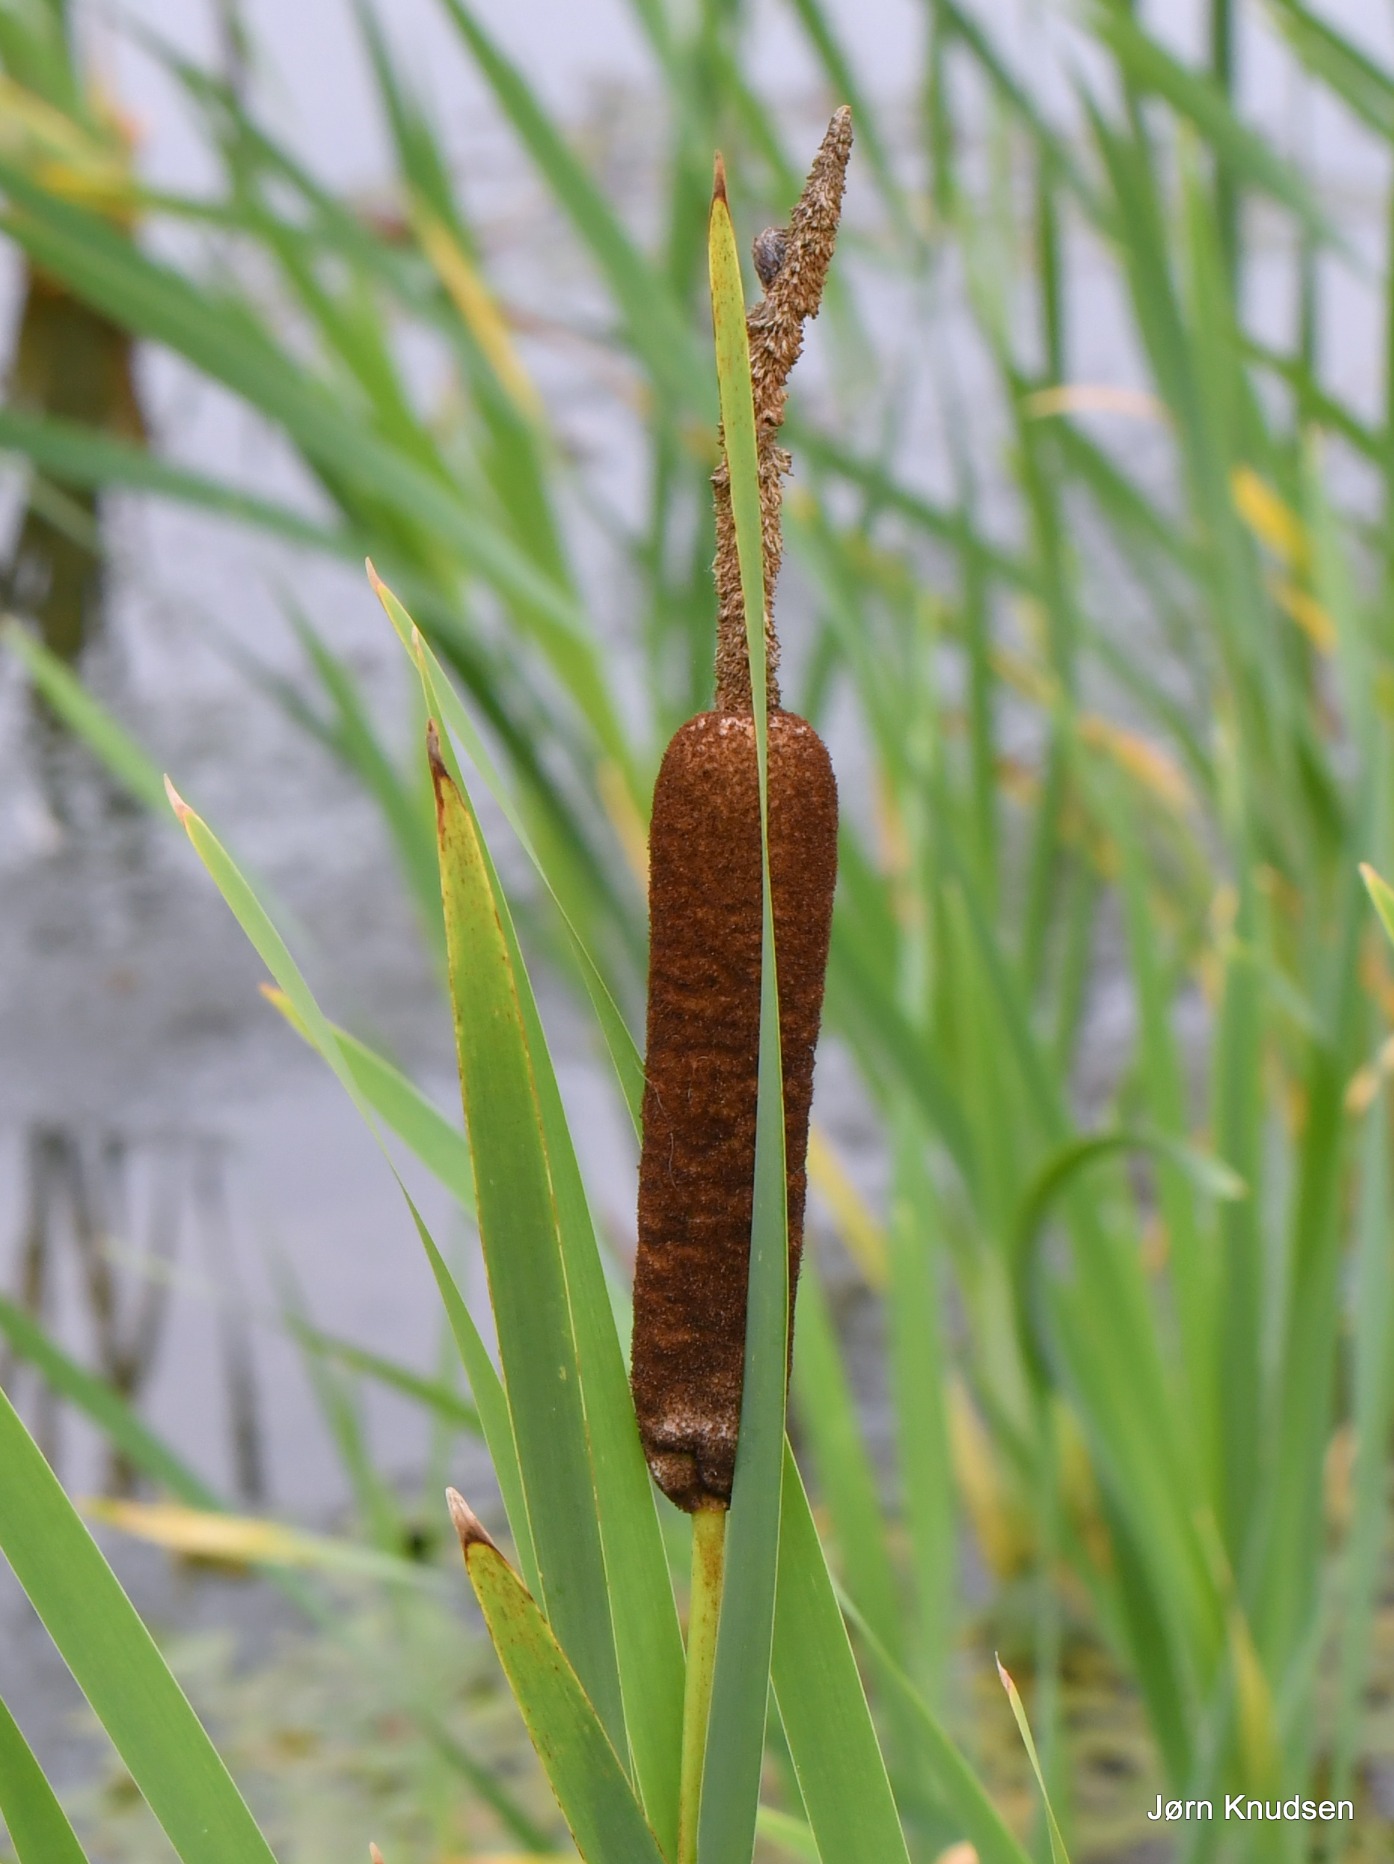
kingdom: Plantae
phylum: Tracheophyta
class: Liliopsida
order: Poales
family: Typhaceae
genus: Typha
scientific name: Typha latifolia
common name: Bredbladet dunhammer
